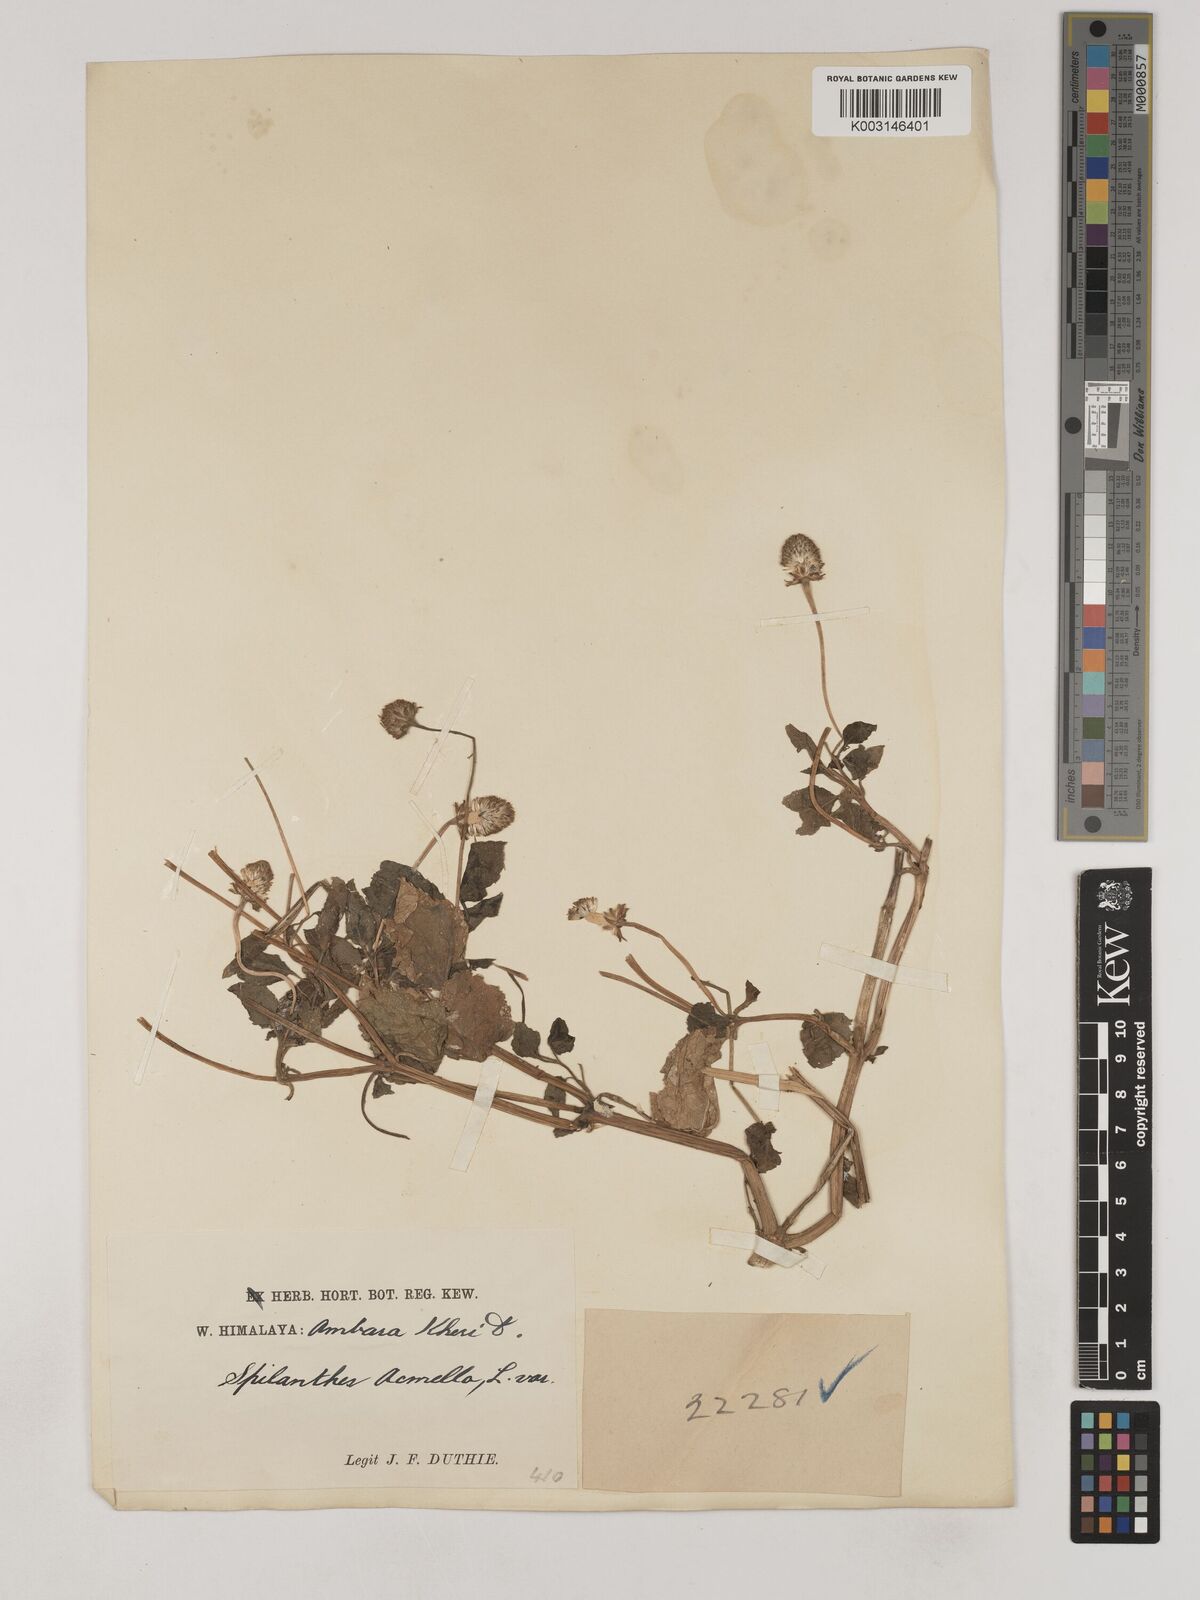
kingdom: Plantae
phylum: Tracheophyta
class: Magnoliopsida
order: Asterales
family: Asteraceae
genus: Acmella
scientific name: Acmella calva
